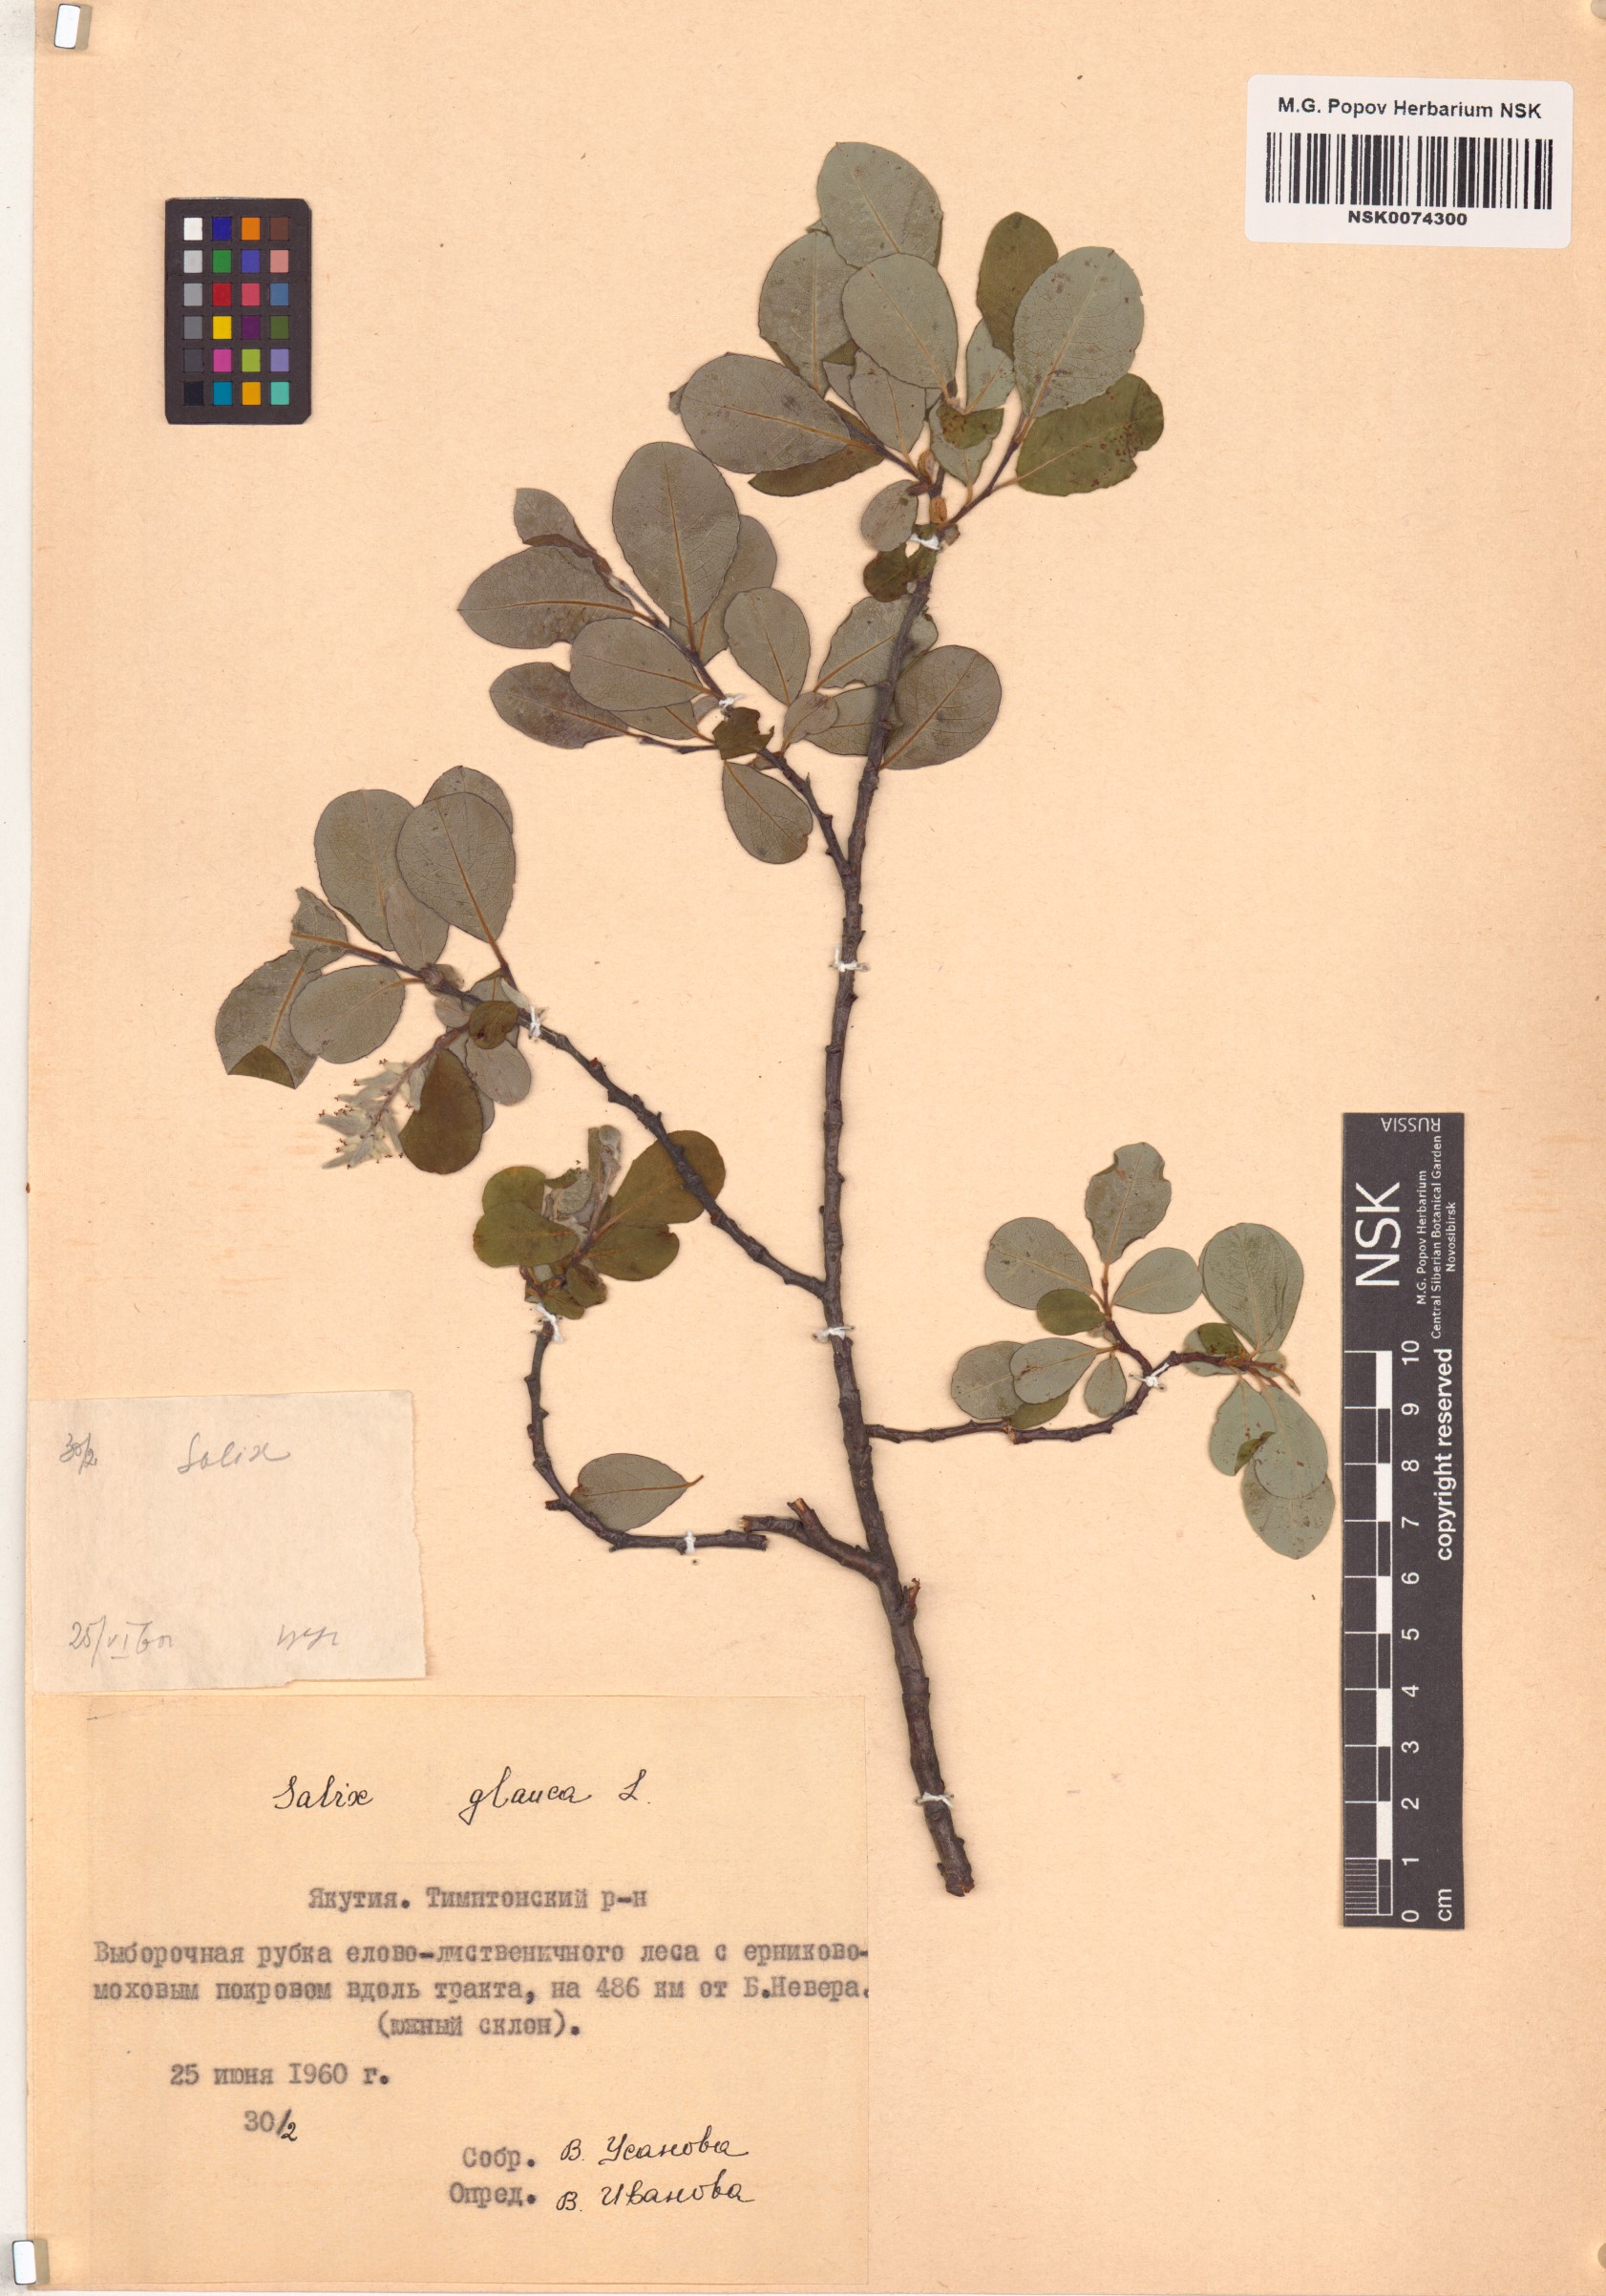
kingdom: Plantae
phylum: Tracheophyta
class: Magnoliopsida
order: Malpighiales
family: Salicaceae
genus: Salix
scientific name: Salix glauca
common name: Glaucous willow
